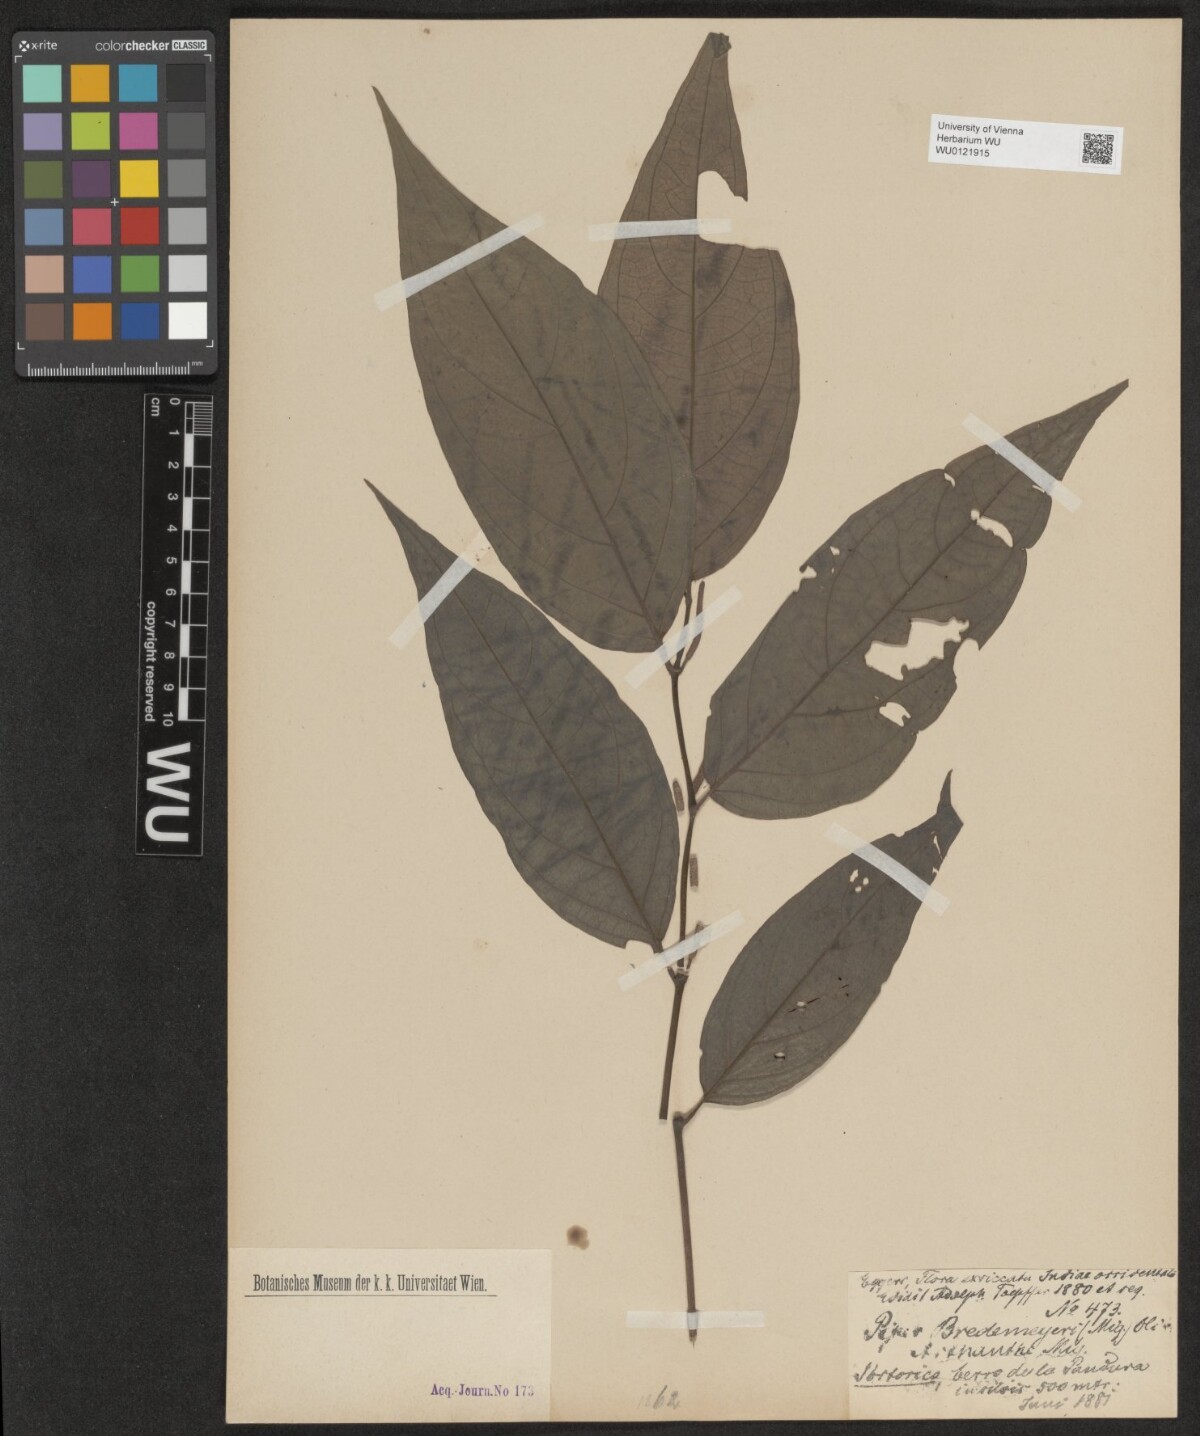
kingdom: Plantae
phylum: Tracheophyta
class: Magnoliopsida
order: Piperales
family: Piperaceae
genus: Piper
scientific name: Piper bredemeyeri
